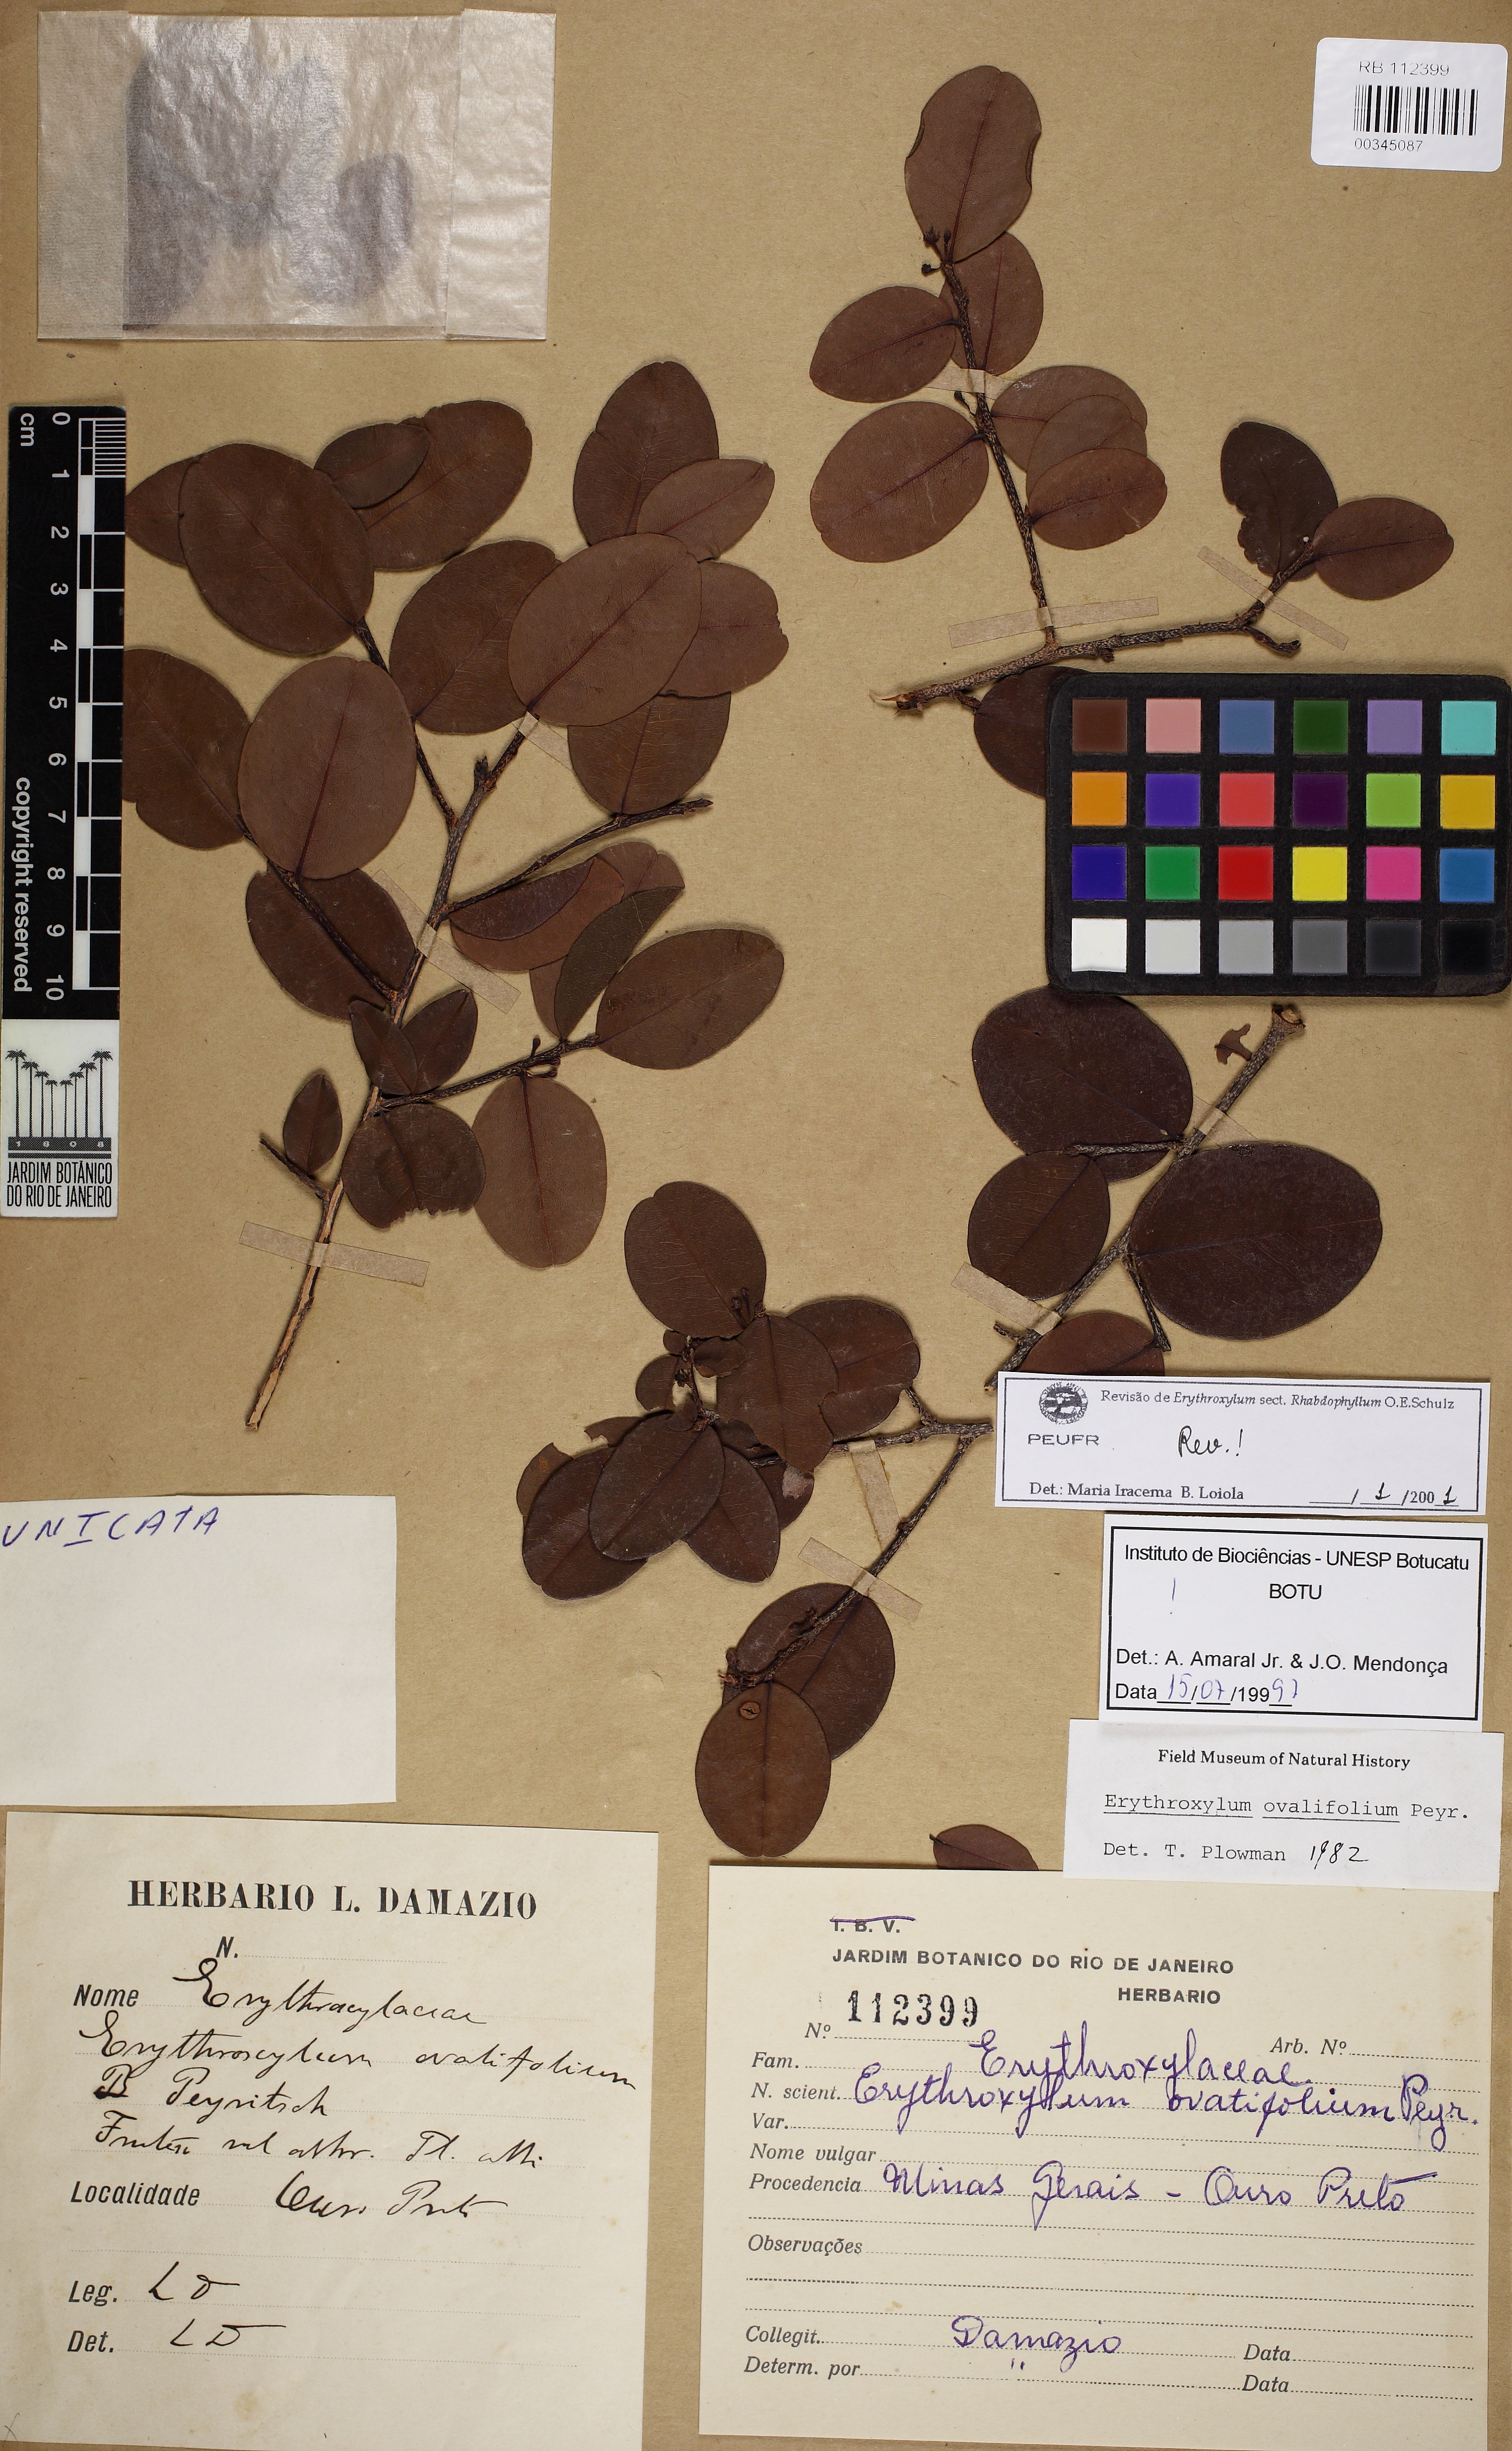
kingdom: Plantae
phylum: Tracheophyta
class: Magnoliopsida
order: Malpighiales
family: Erythroxylaceae
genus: Erythroxylum
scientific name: Erythroxylum ovalifolium
